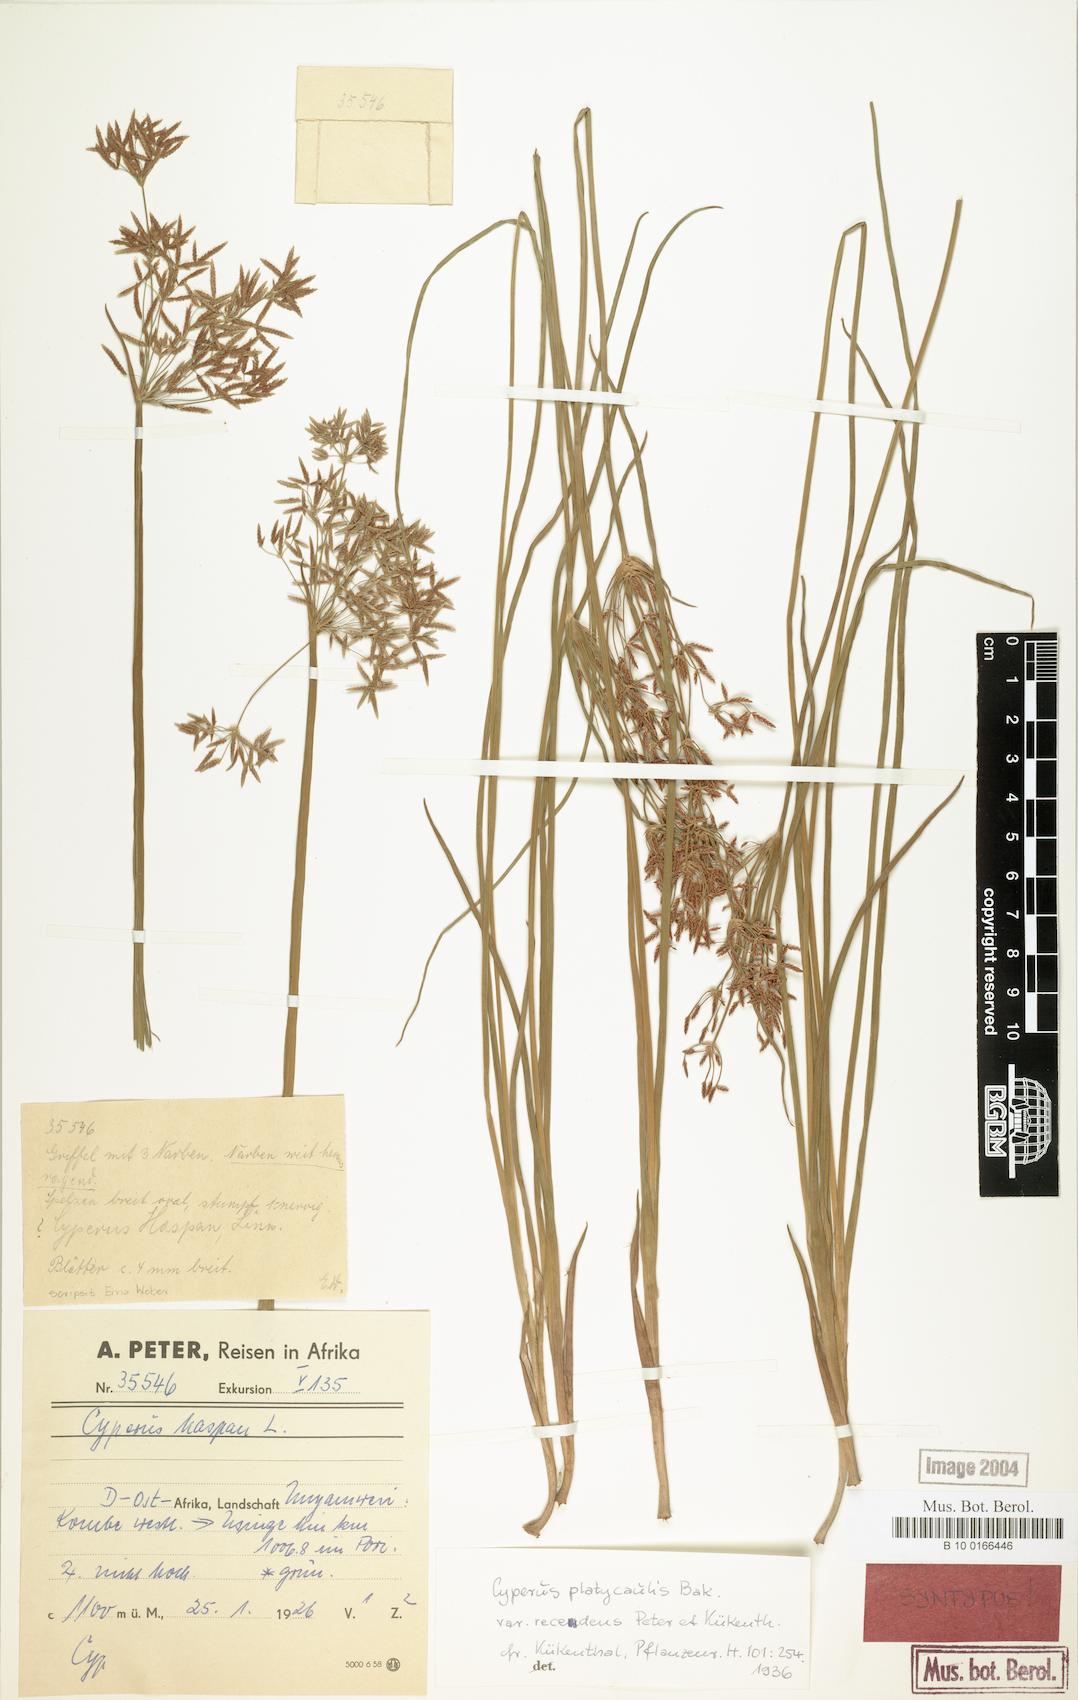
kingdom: Plantae
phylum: Tracheophyta
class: Liliopsida
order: Poales
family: Cyperaceae
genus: Cyperus
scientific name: Cyperus denudatus
